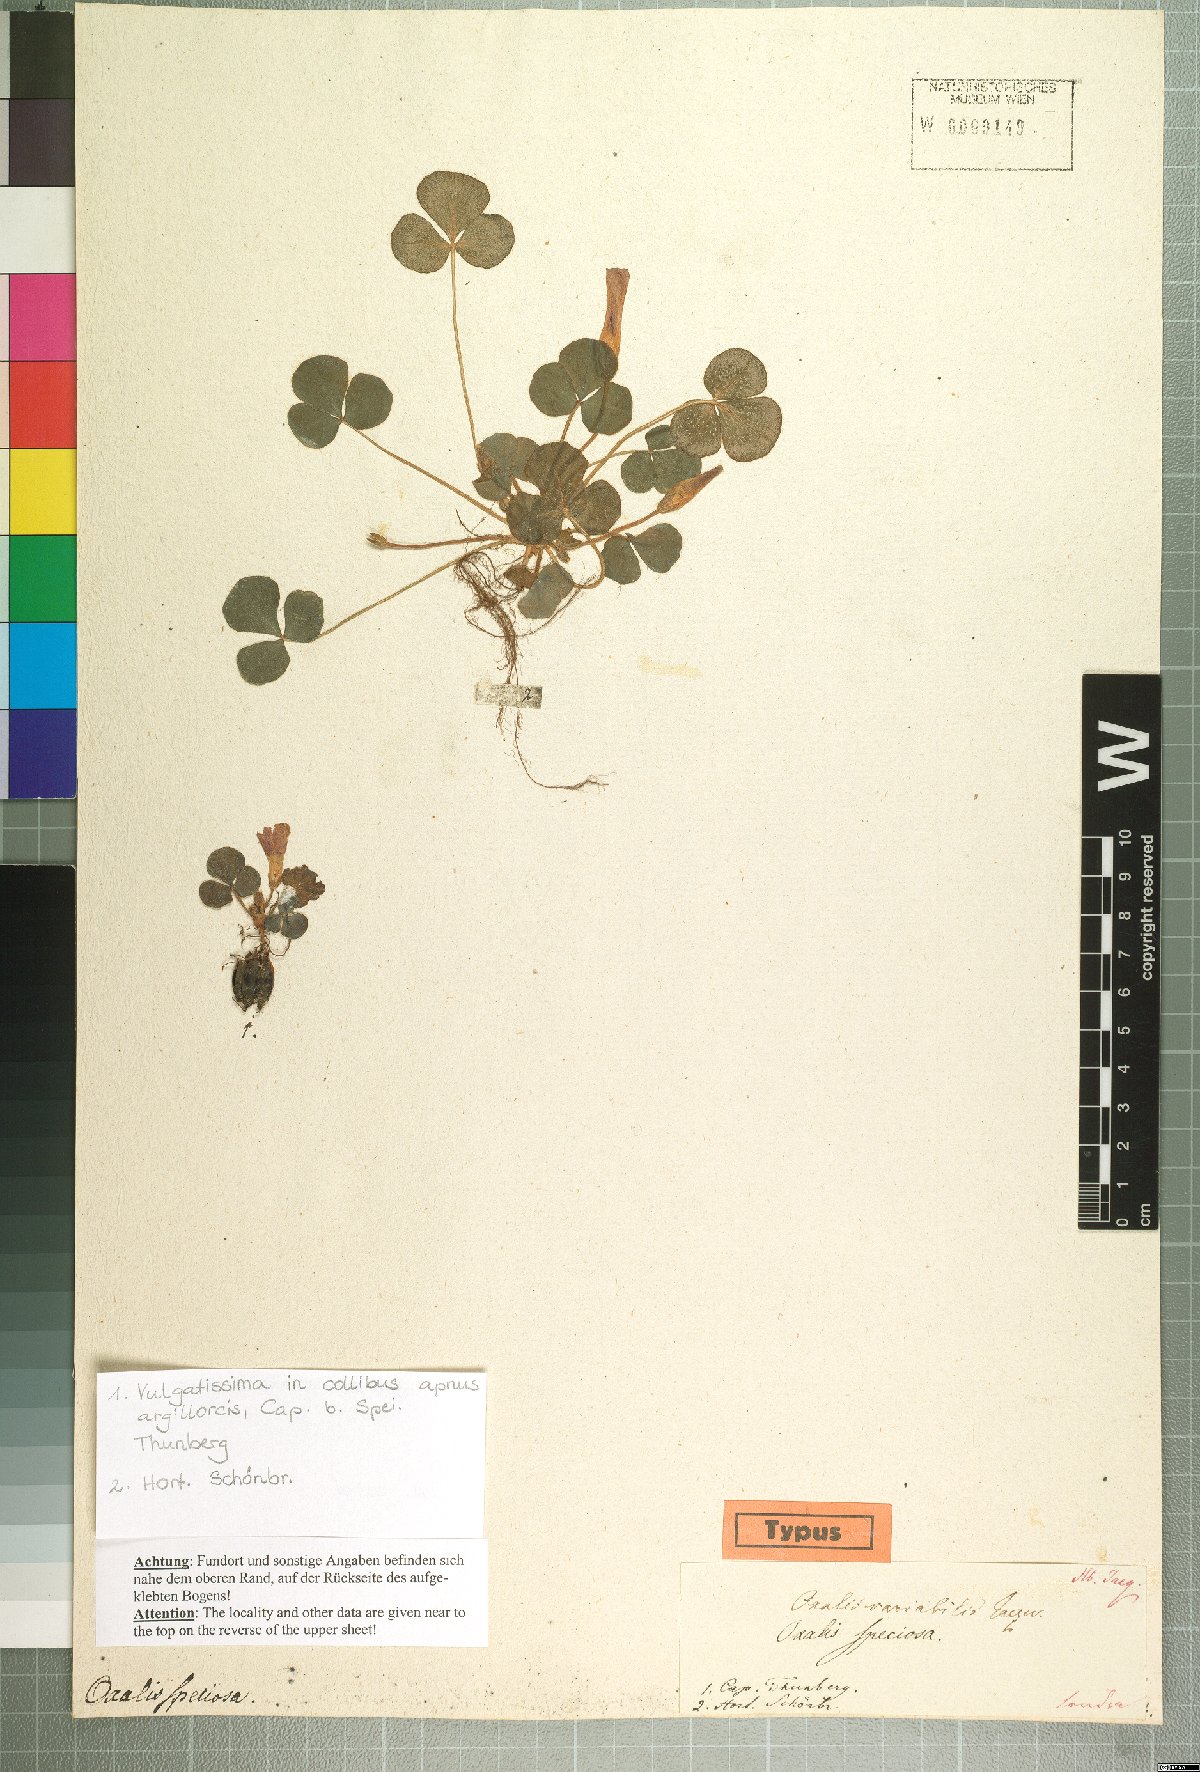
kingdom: Plantae
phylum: Tracheophyta
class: Magnoliopsida
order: Oxalidales
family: Oxalidaceae
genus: Oxalis
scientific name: Oxalis purpurea
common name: Purple woodsorrel
